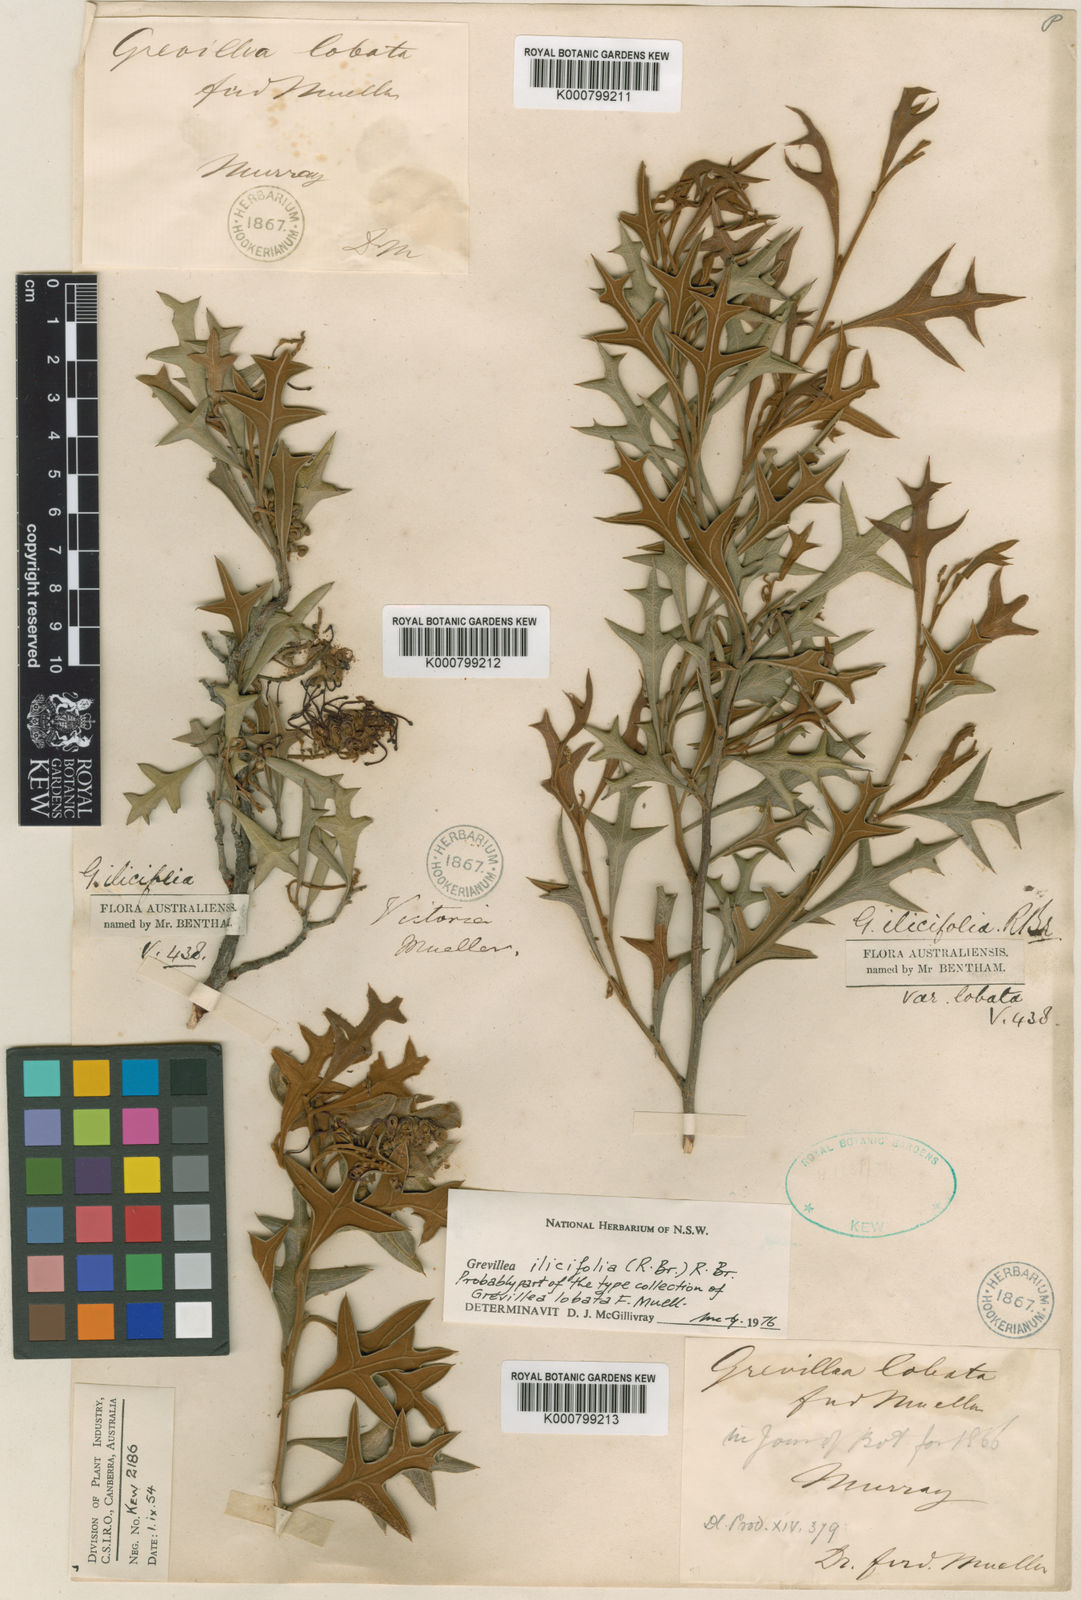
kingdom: Plantae
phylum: Tracheophyta
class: Magnoliopsida
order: Proteales
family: Proteaceae
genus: Grevillea
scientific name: Grevillea ilicifolia
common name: Holly grevillea
